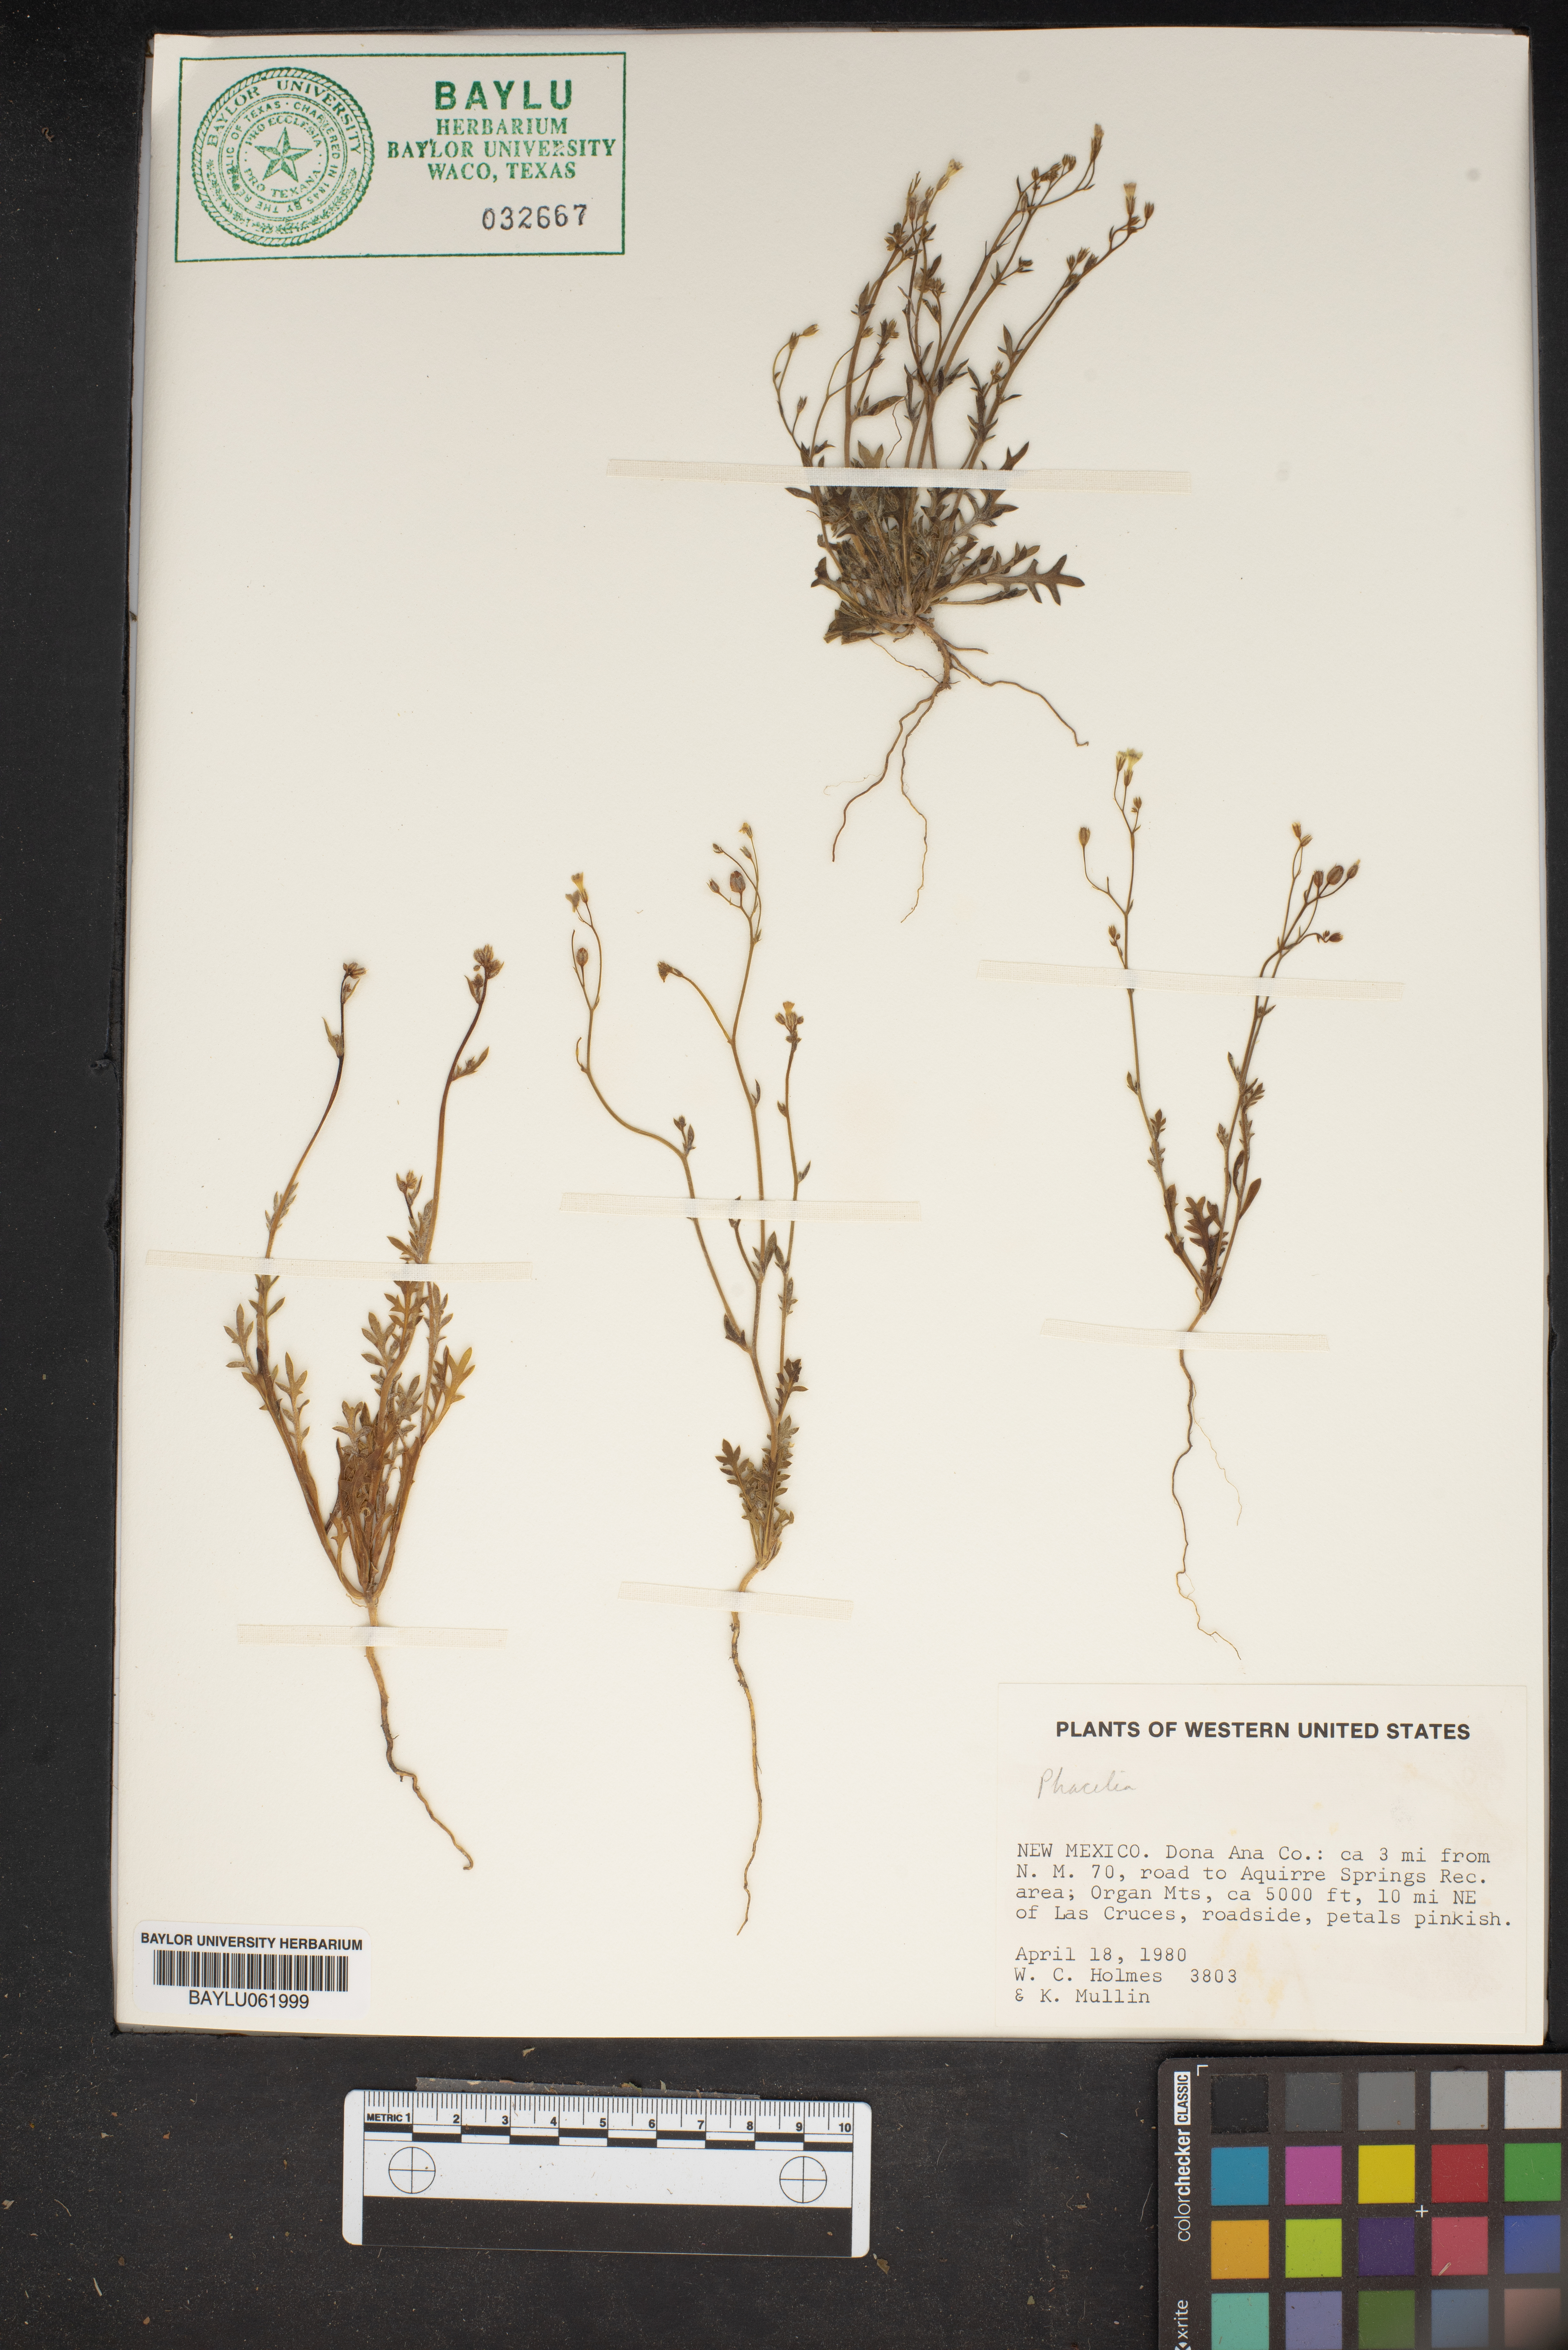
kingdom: Plantae
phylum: Tracheophyta
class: Magnoliopsida
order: Boraginales
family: Hydrophyllaceae
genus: Phacelia
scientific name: Phacelia
